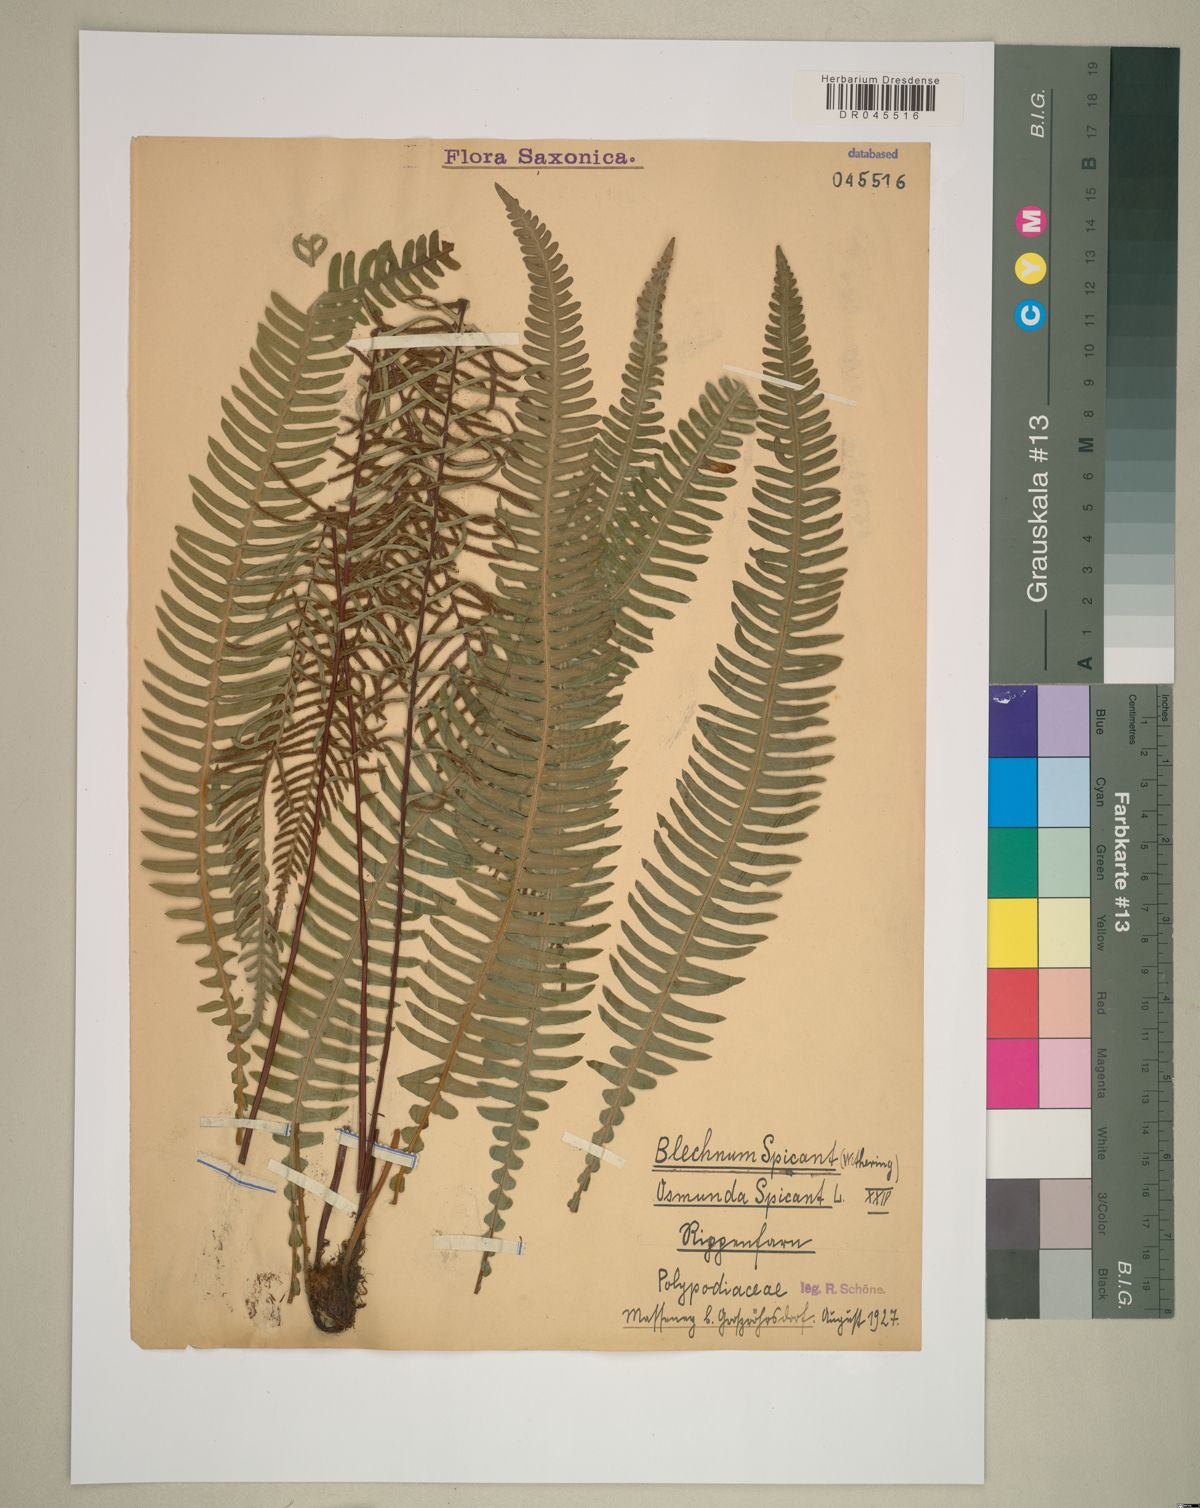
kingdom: Plantae
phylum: Tracheophyta
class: Polypodiopsida
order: Polypodiales
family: Blechnaceae
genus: Struthiopteris
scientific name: Struthiopteris spicant
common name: Deer fern
